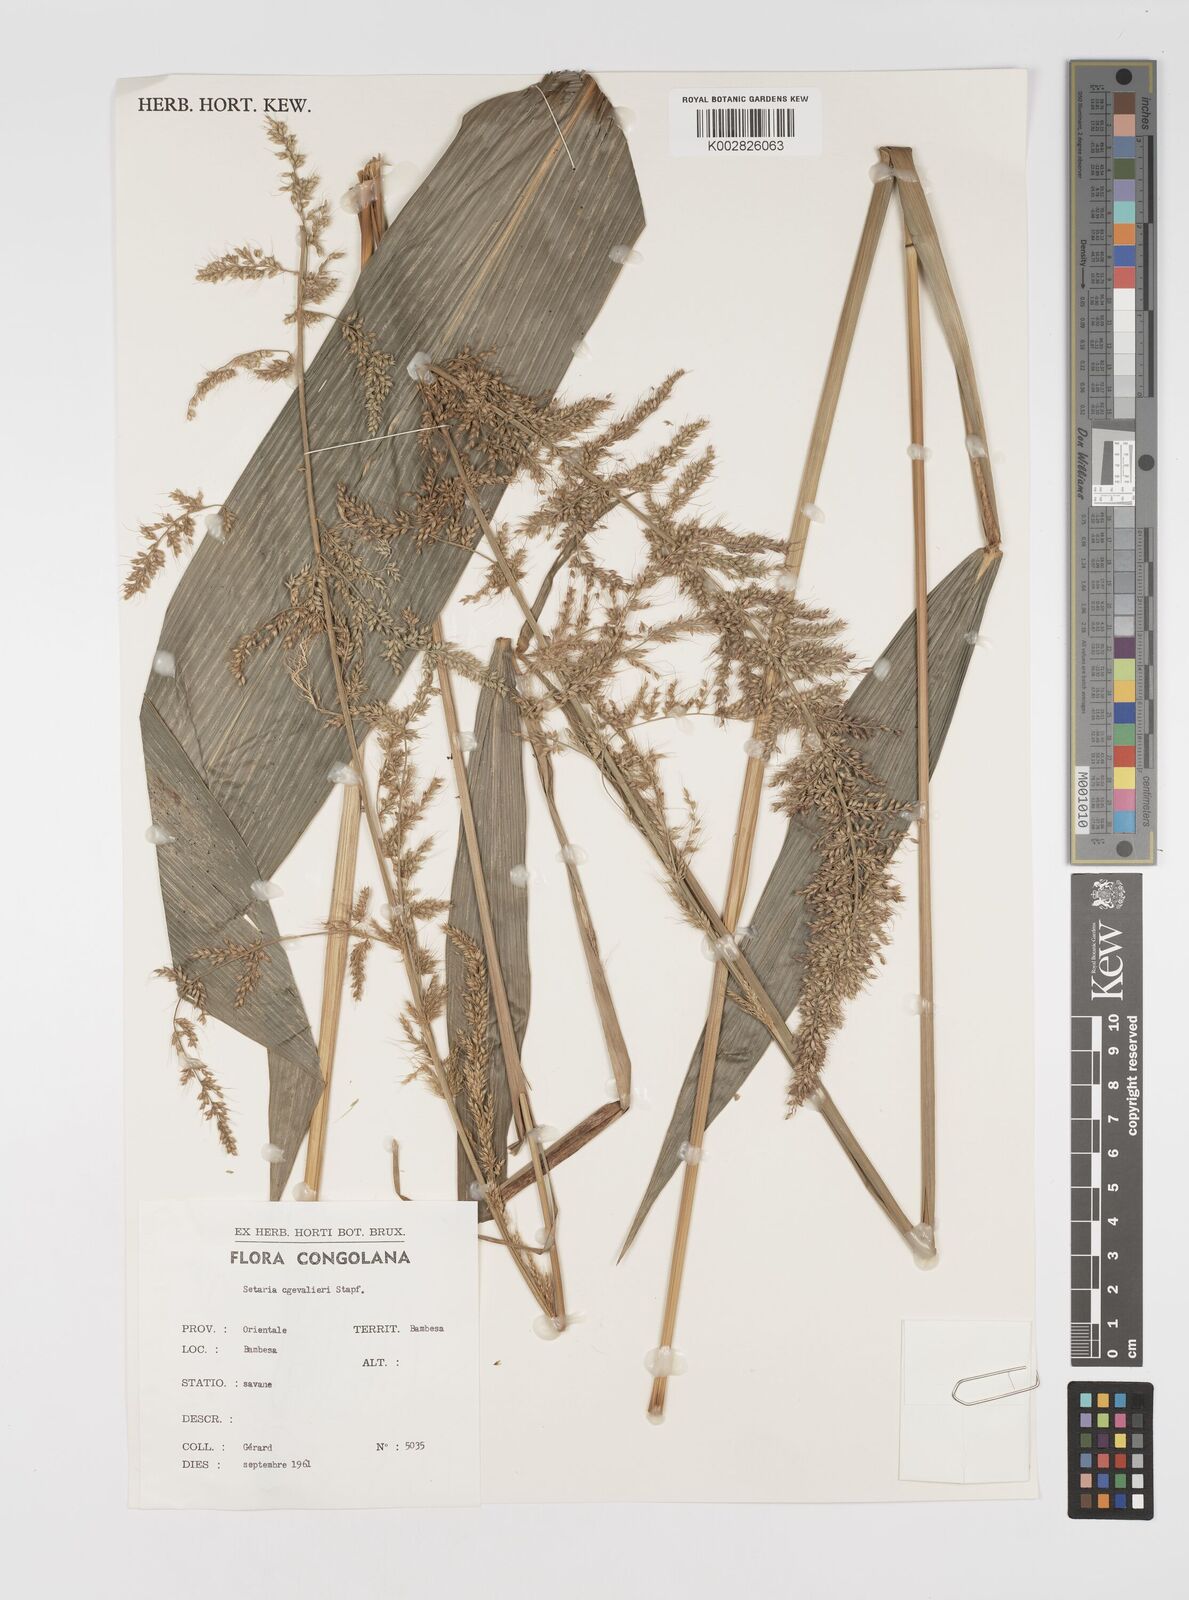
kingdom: Plantae
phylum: Tracheophyta
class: Liliopsida
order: Poales
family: Poaceae
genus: Setaria
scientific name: Setaria megaphylla
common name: Bigleaf bristlegrass
